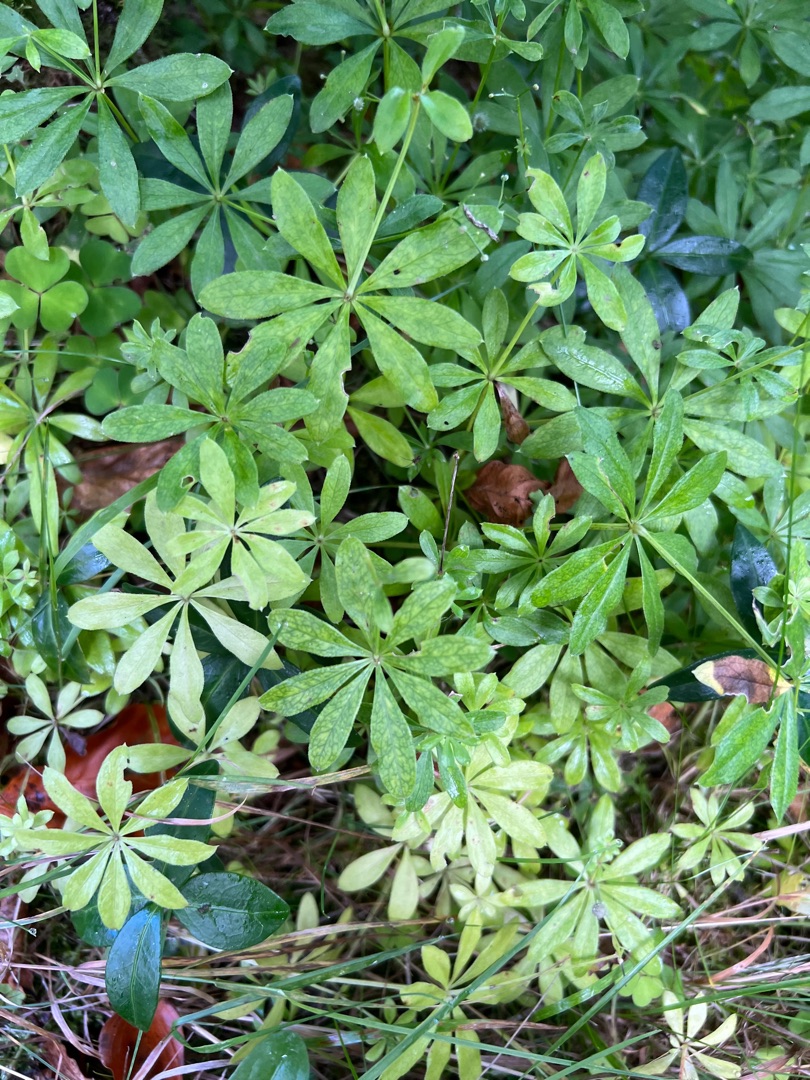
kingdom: Plantae
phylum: Tracheophyta
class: Magnoliopsida
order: Gentianales
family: Rubiaceae
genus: Galium
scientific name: Galium odoratum
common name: Skovmærke
